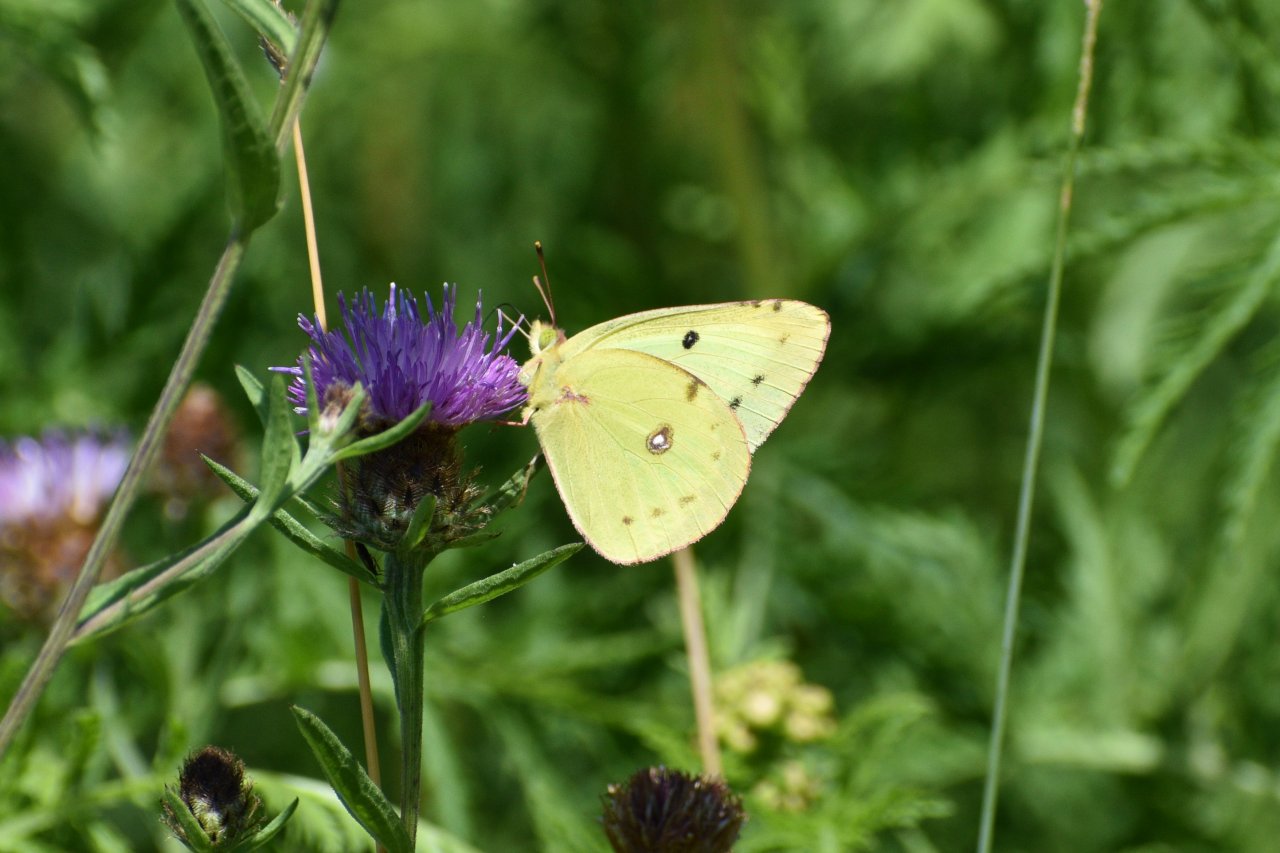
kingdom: Animalia
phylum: Arthropoda
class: Insecta
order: Lepidoptera
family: Pieridae
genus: Colias
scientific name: Colias philodice
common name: Clouded Sulphur
